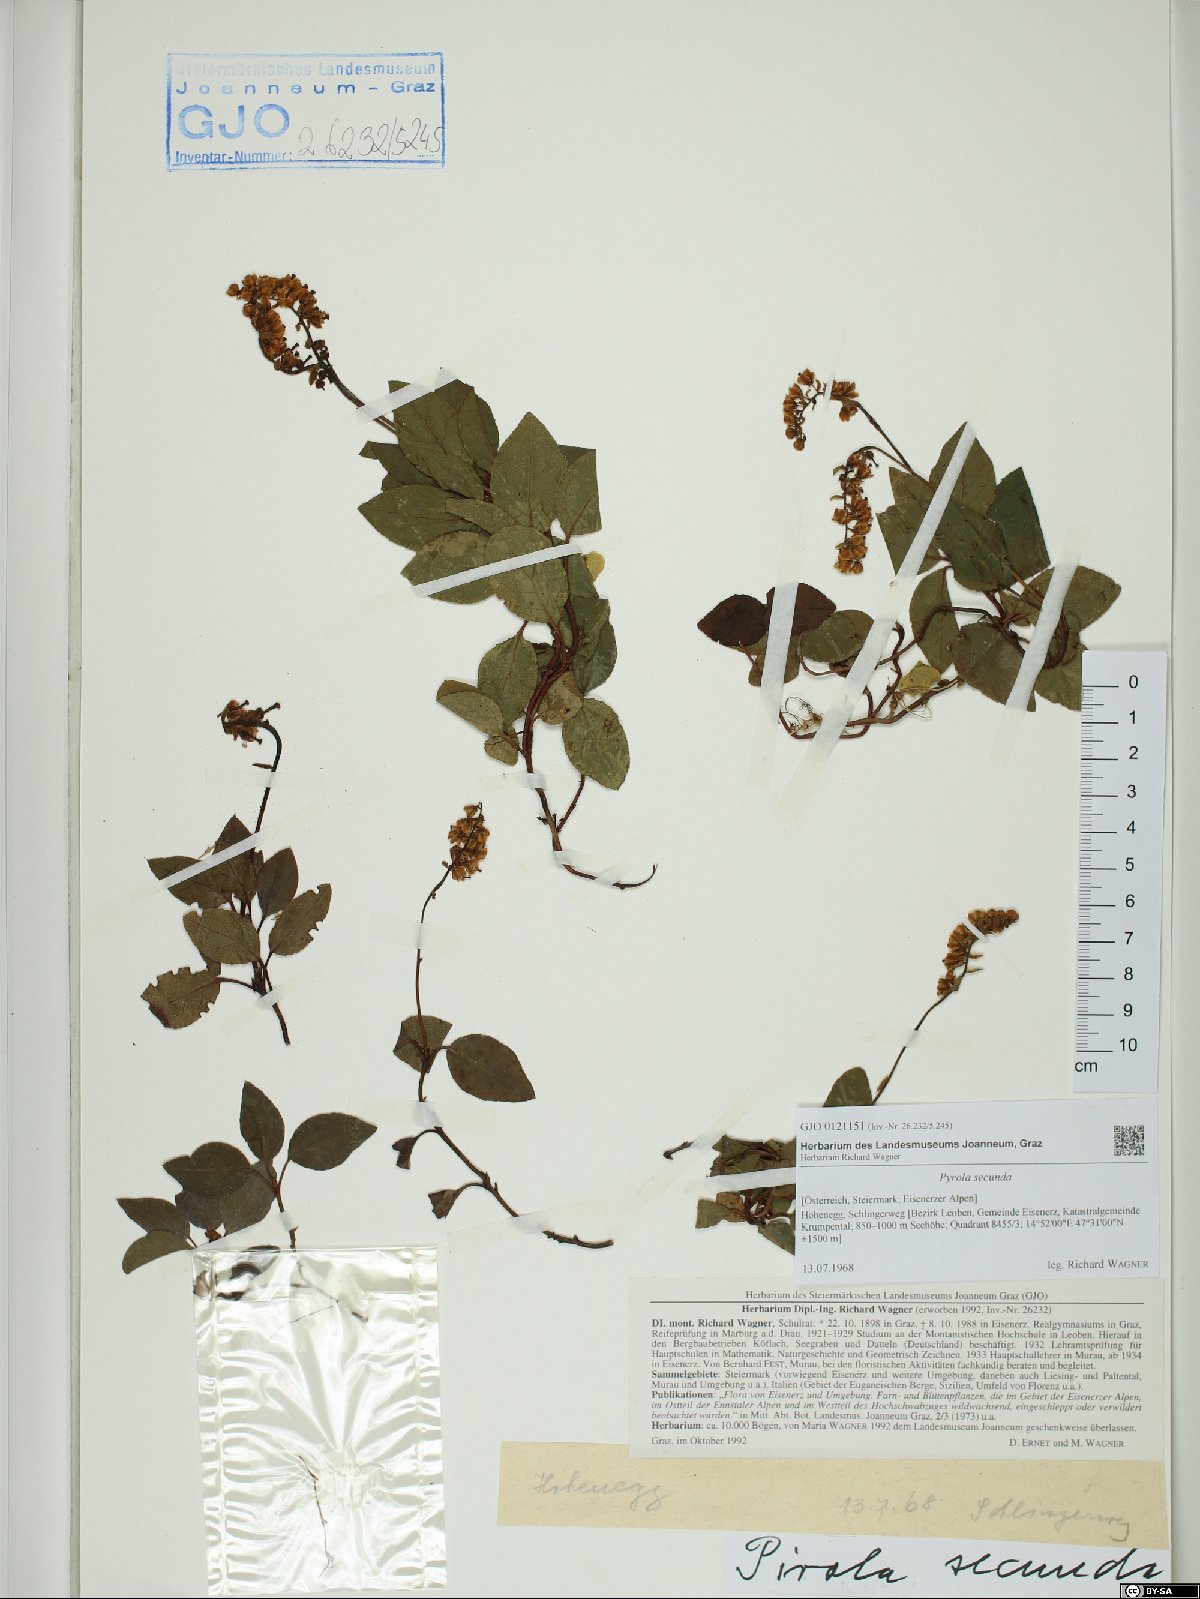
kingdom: Plantae
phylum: Tracheophyta
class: Magnoliopsida
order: Ericales
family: Ericaceae
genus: Orthilia
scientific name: Orthilia secunda
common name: One-sided orthilia
